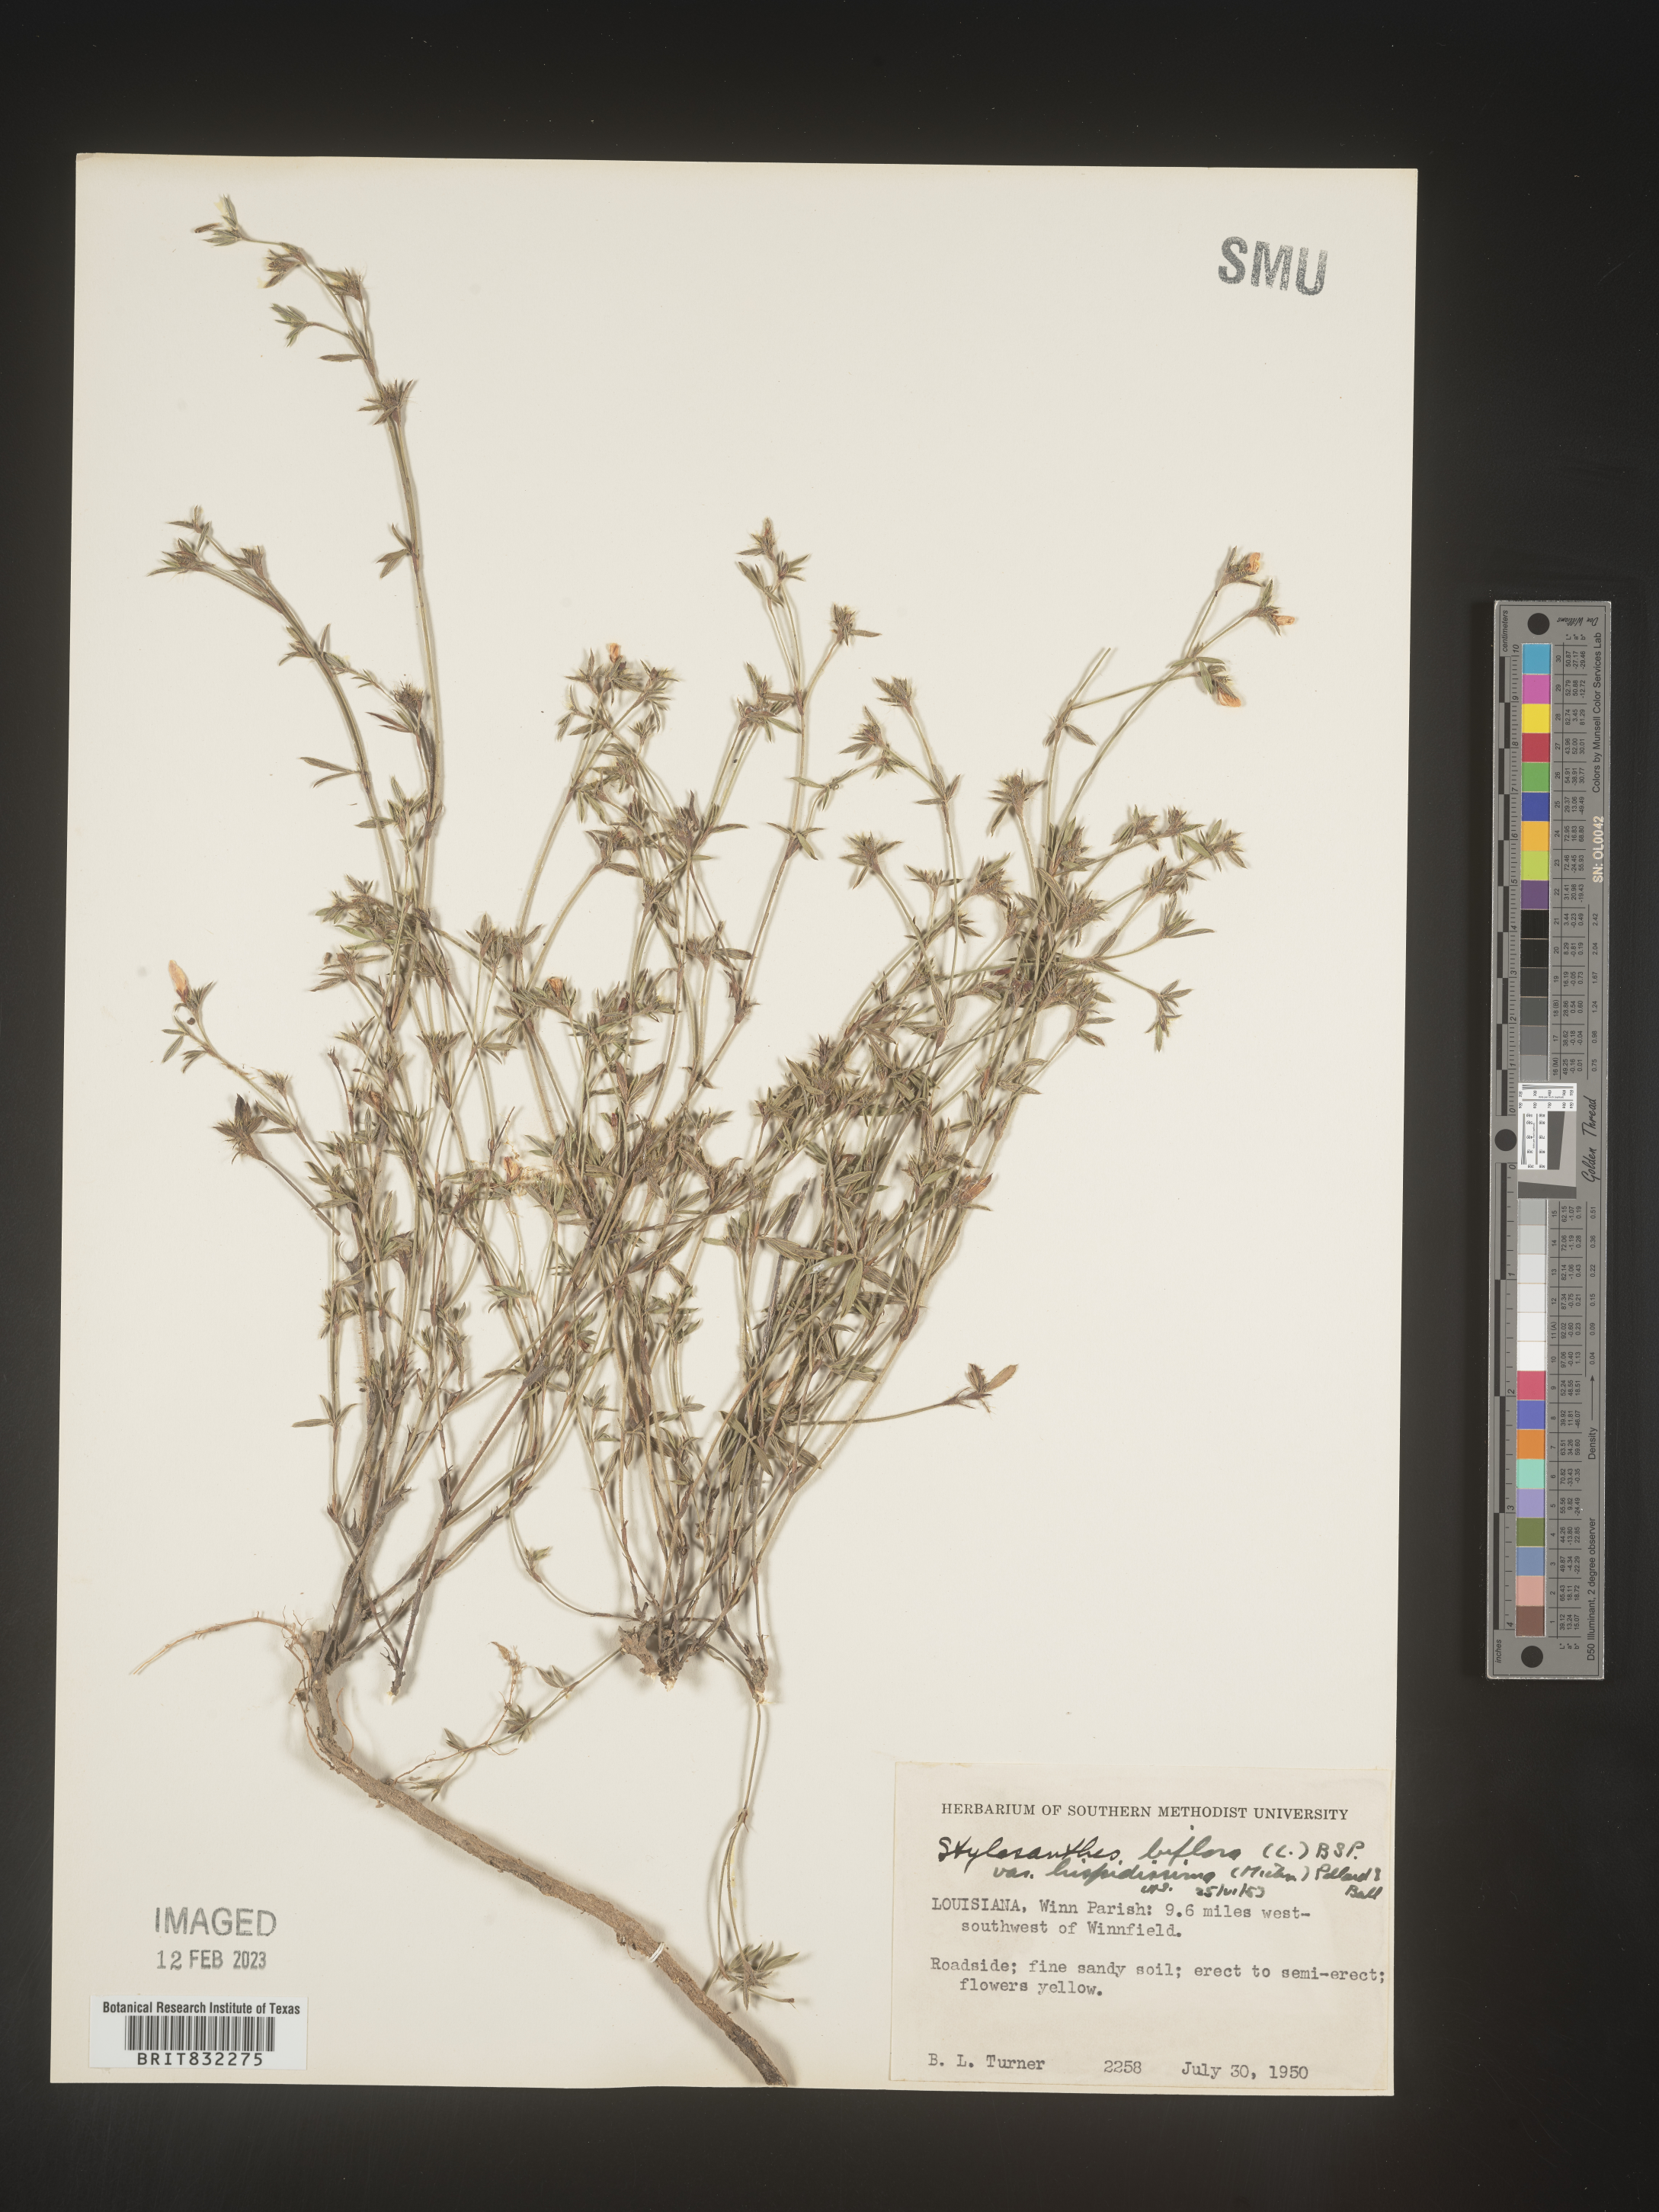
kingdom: Plantae
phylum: Tracheophyta
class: Magnoliopsida
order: Fabales
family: Fabaceae
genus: Stylosanthes
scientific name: Stylosanthes biflora
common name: Two-flower pencil-flower
